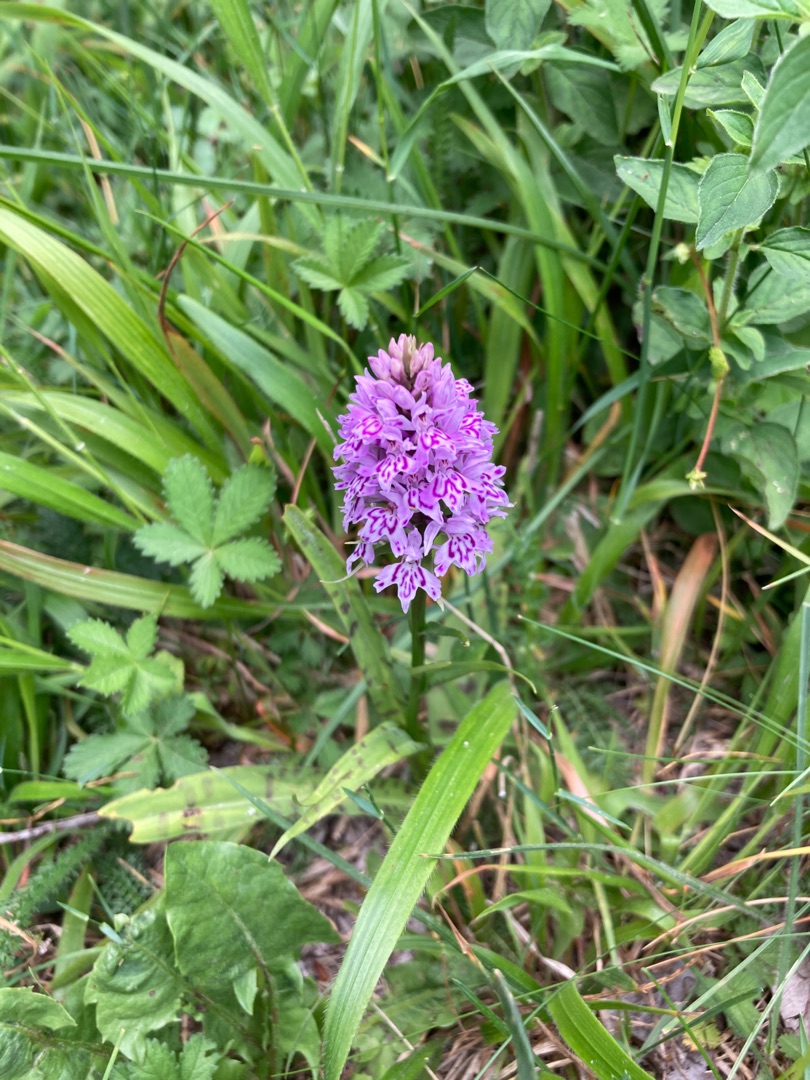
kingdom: Plantae
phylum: Tracheophyta
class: Liliopsida
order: Asparagales
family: Orchidaceae
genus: Dactylorhiza
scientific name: Dactylorhiza maculata
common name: Skov-gøgeurt
